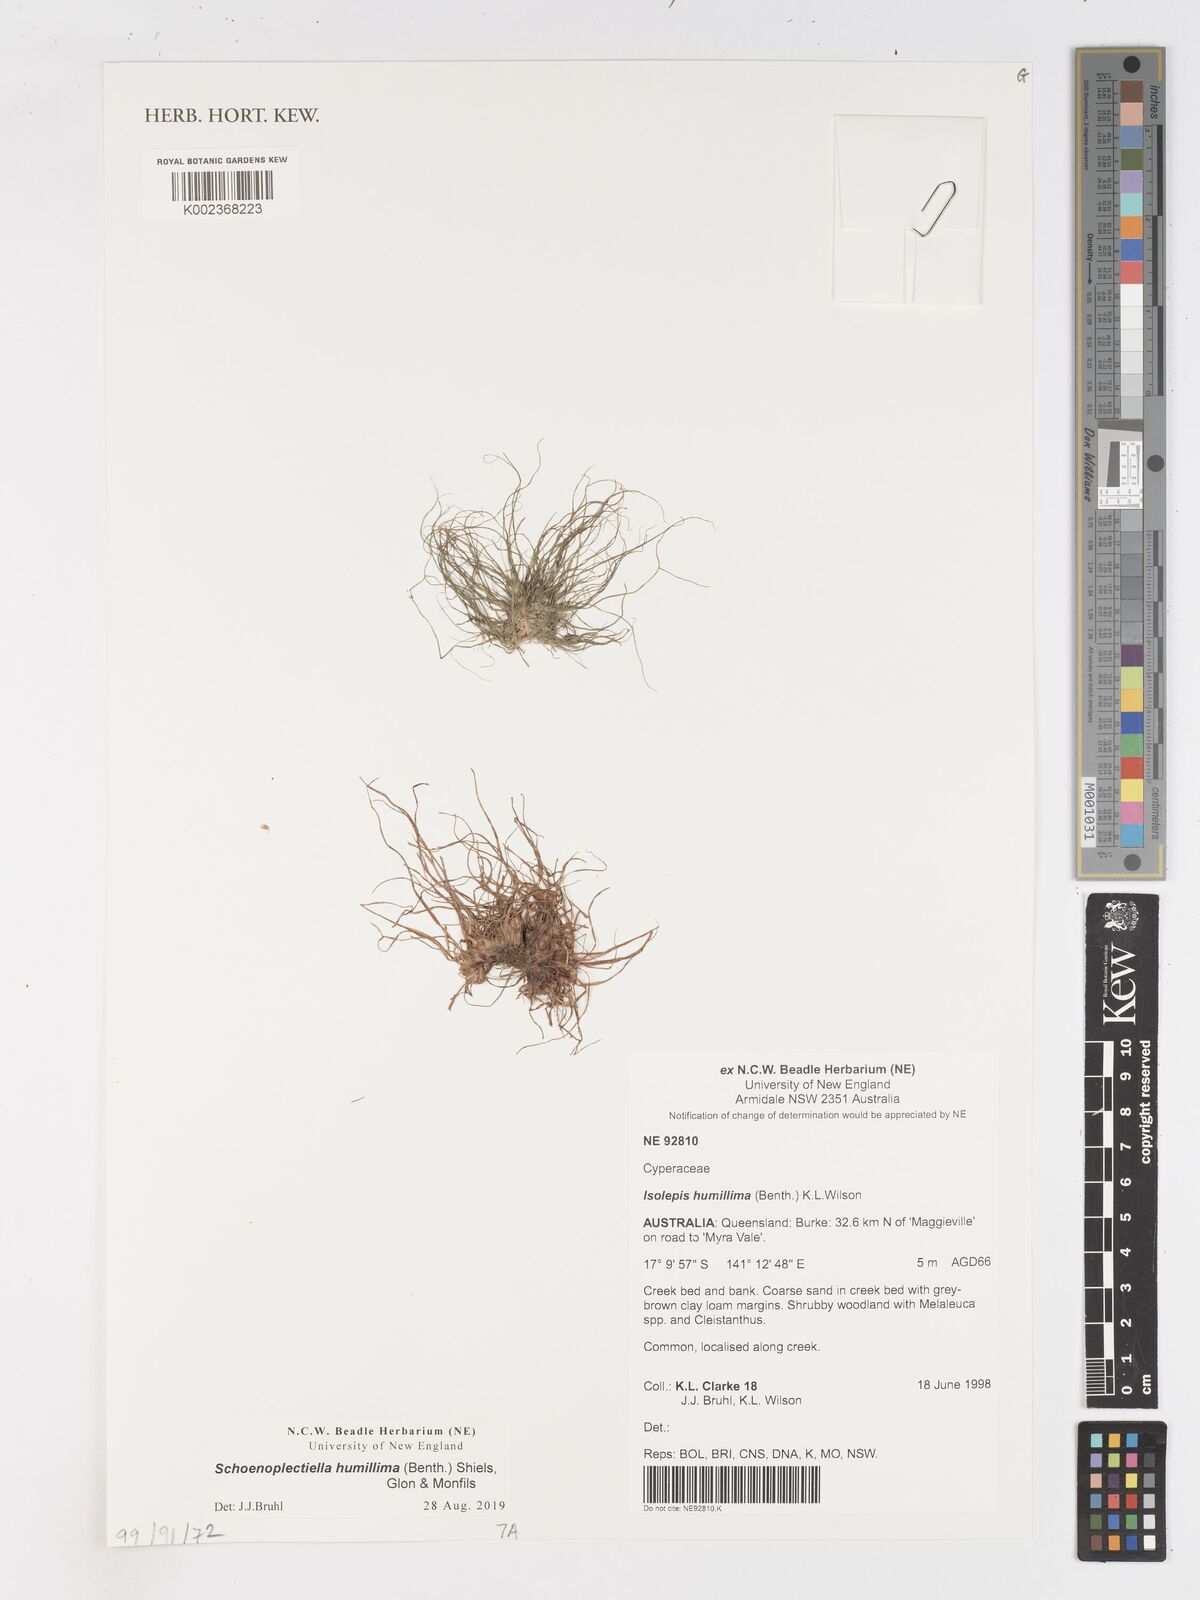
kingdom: Plantae
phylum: Tracheophyta
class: Liliopsida
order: Poales
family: Cyperaceae
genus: Schoenoplectiella
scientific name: Schoenoplectiella humillima
